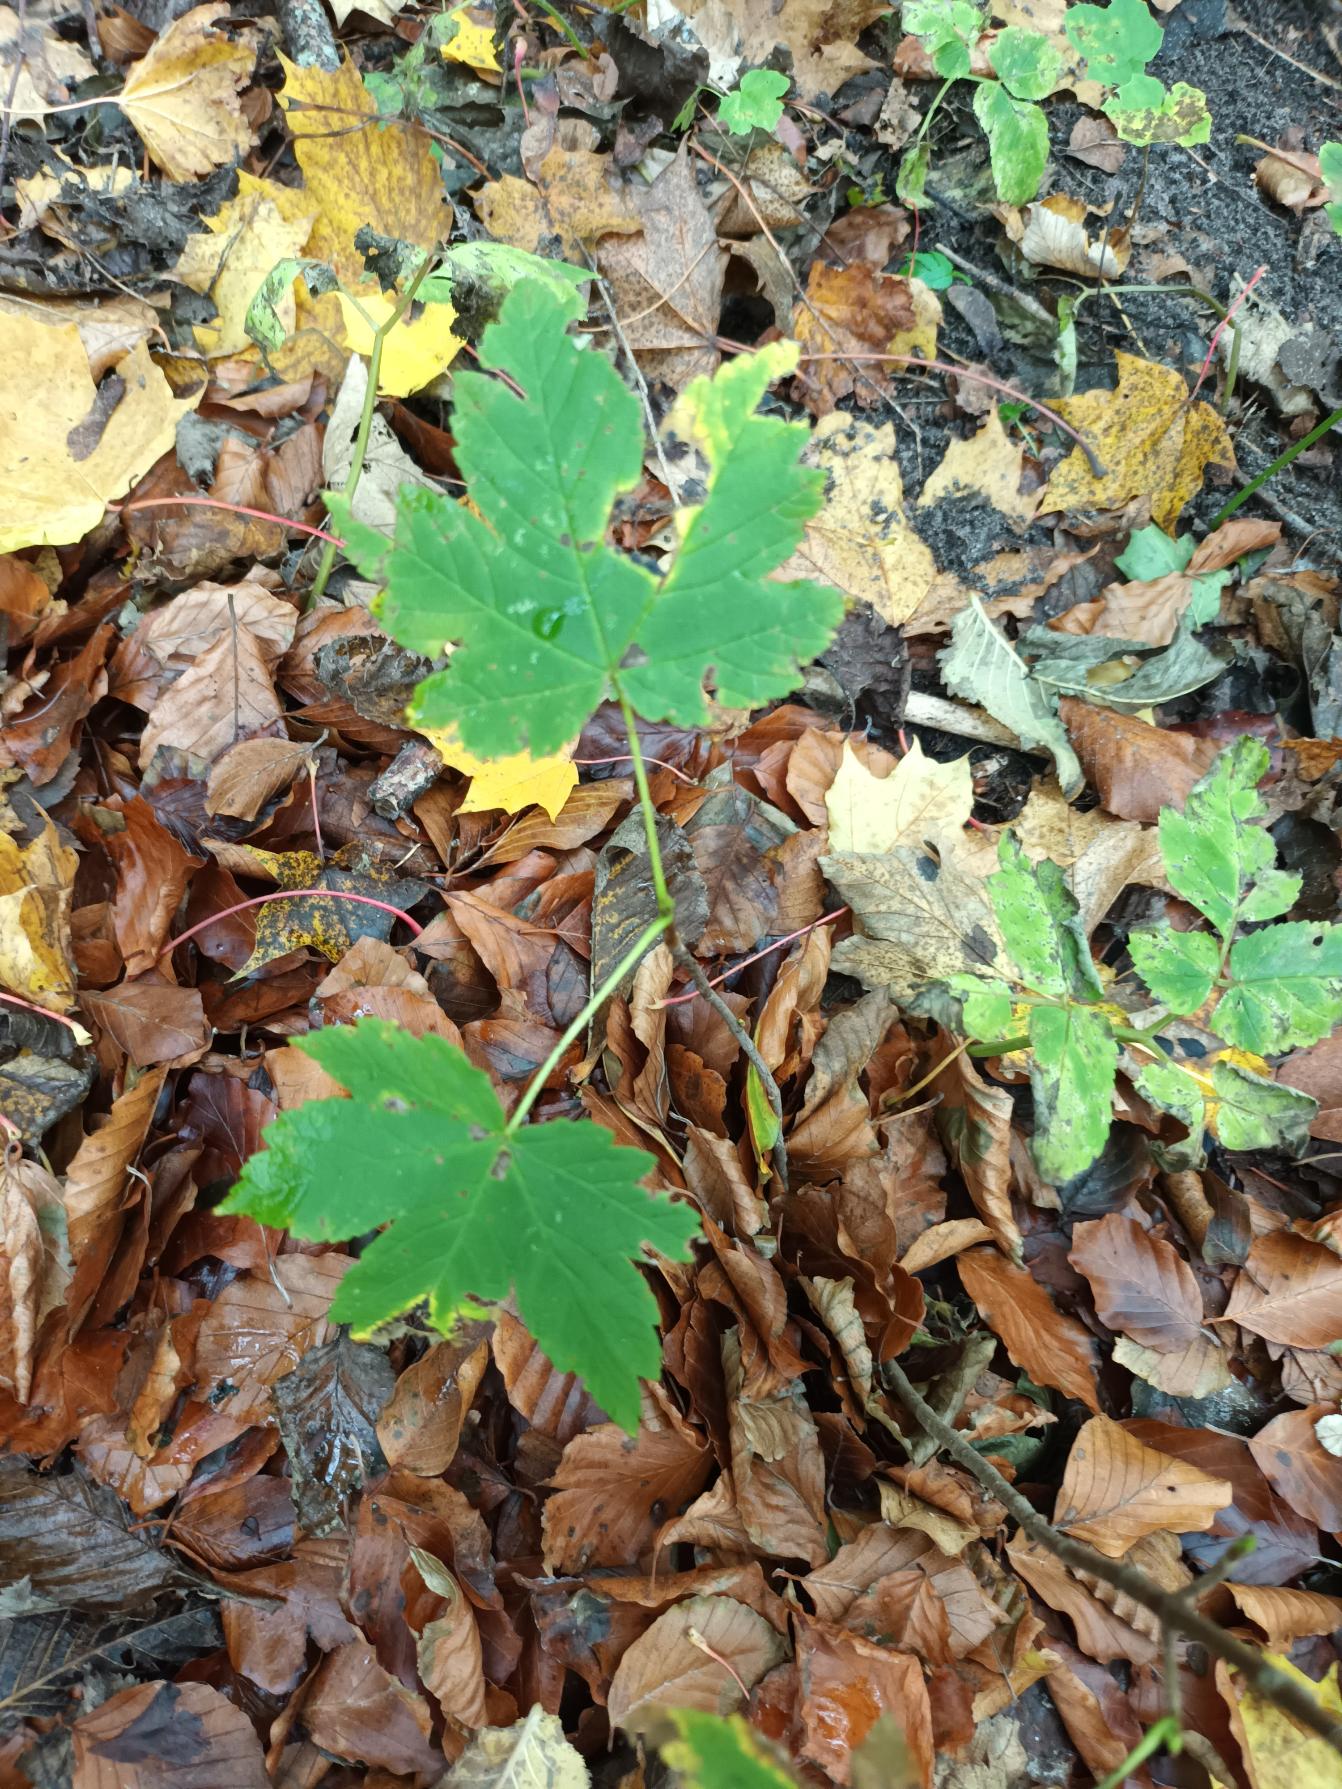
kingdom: Plantae
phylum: Tracheophyta
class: Magnoliopsida
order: Sapindales
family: Sapindaceae
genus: Acer
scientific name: Acer pseudoplatanus
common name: Ahorn
